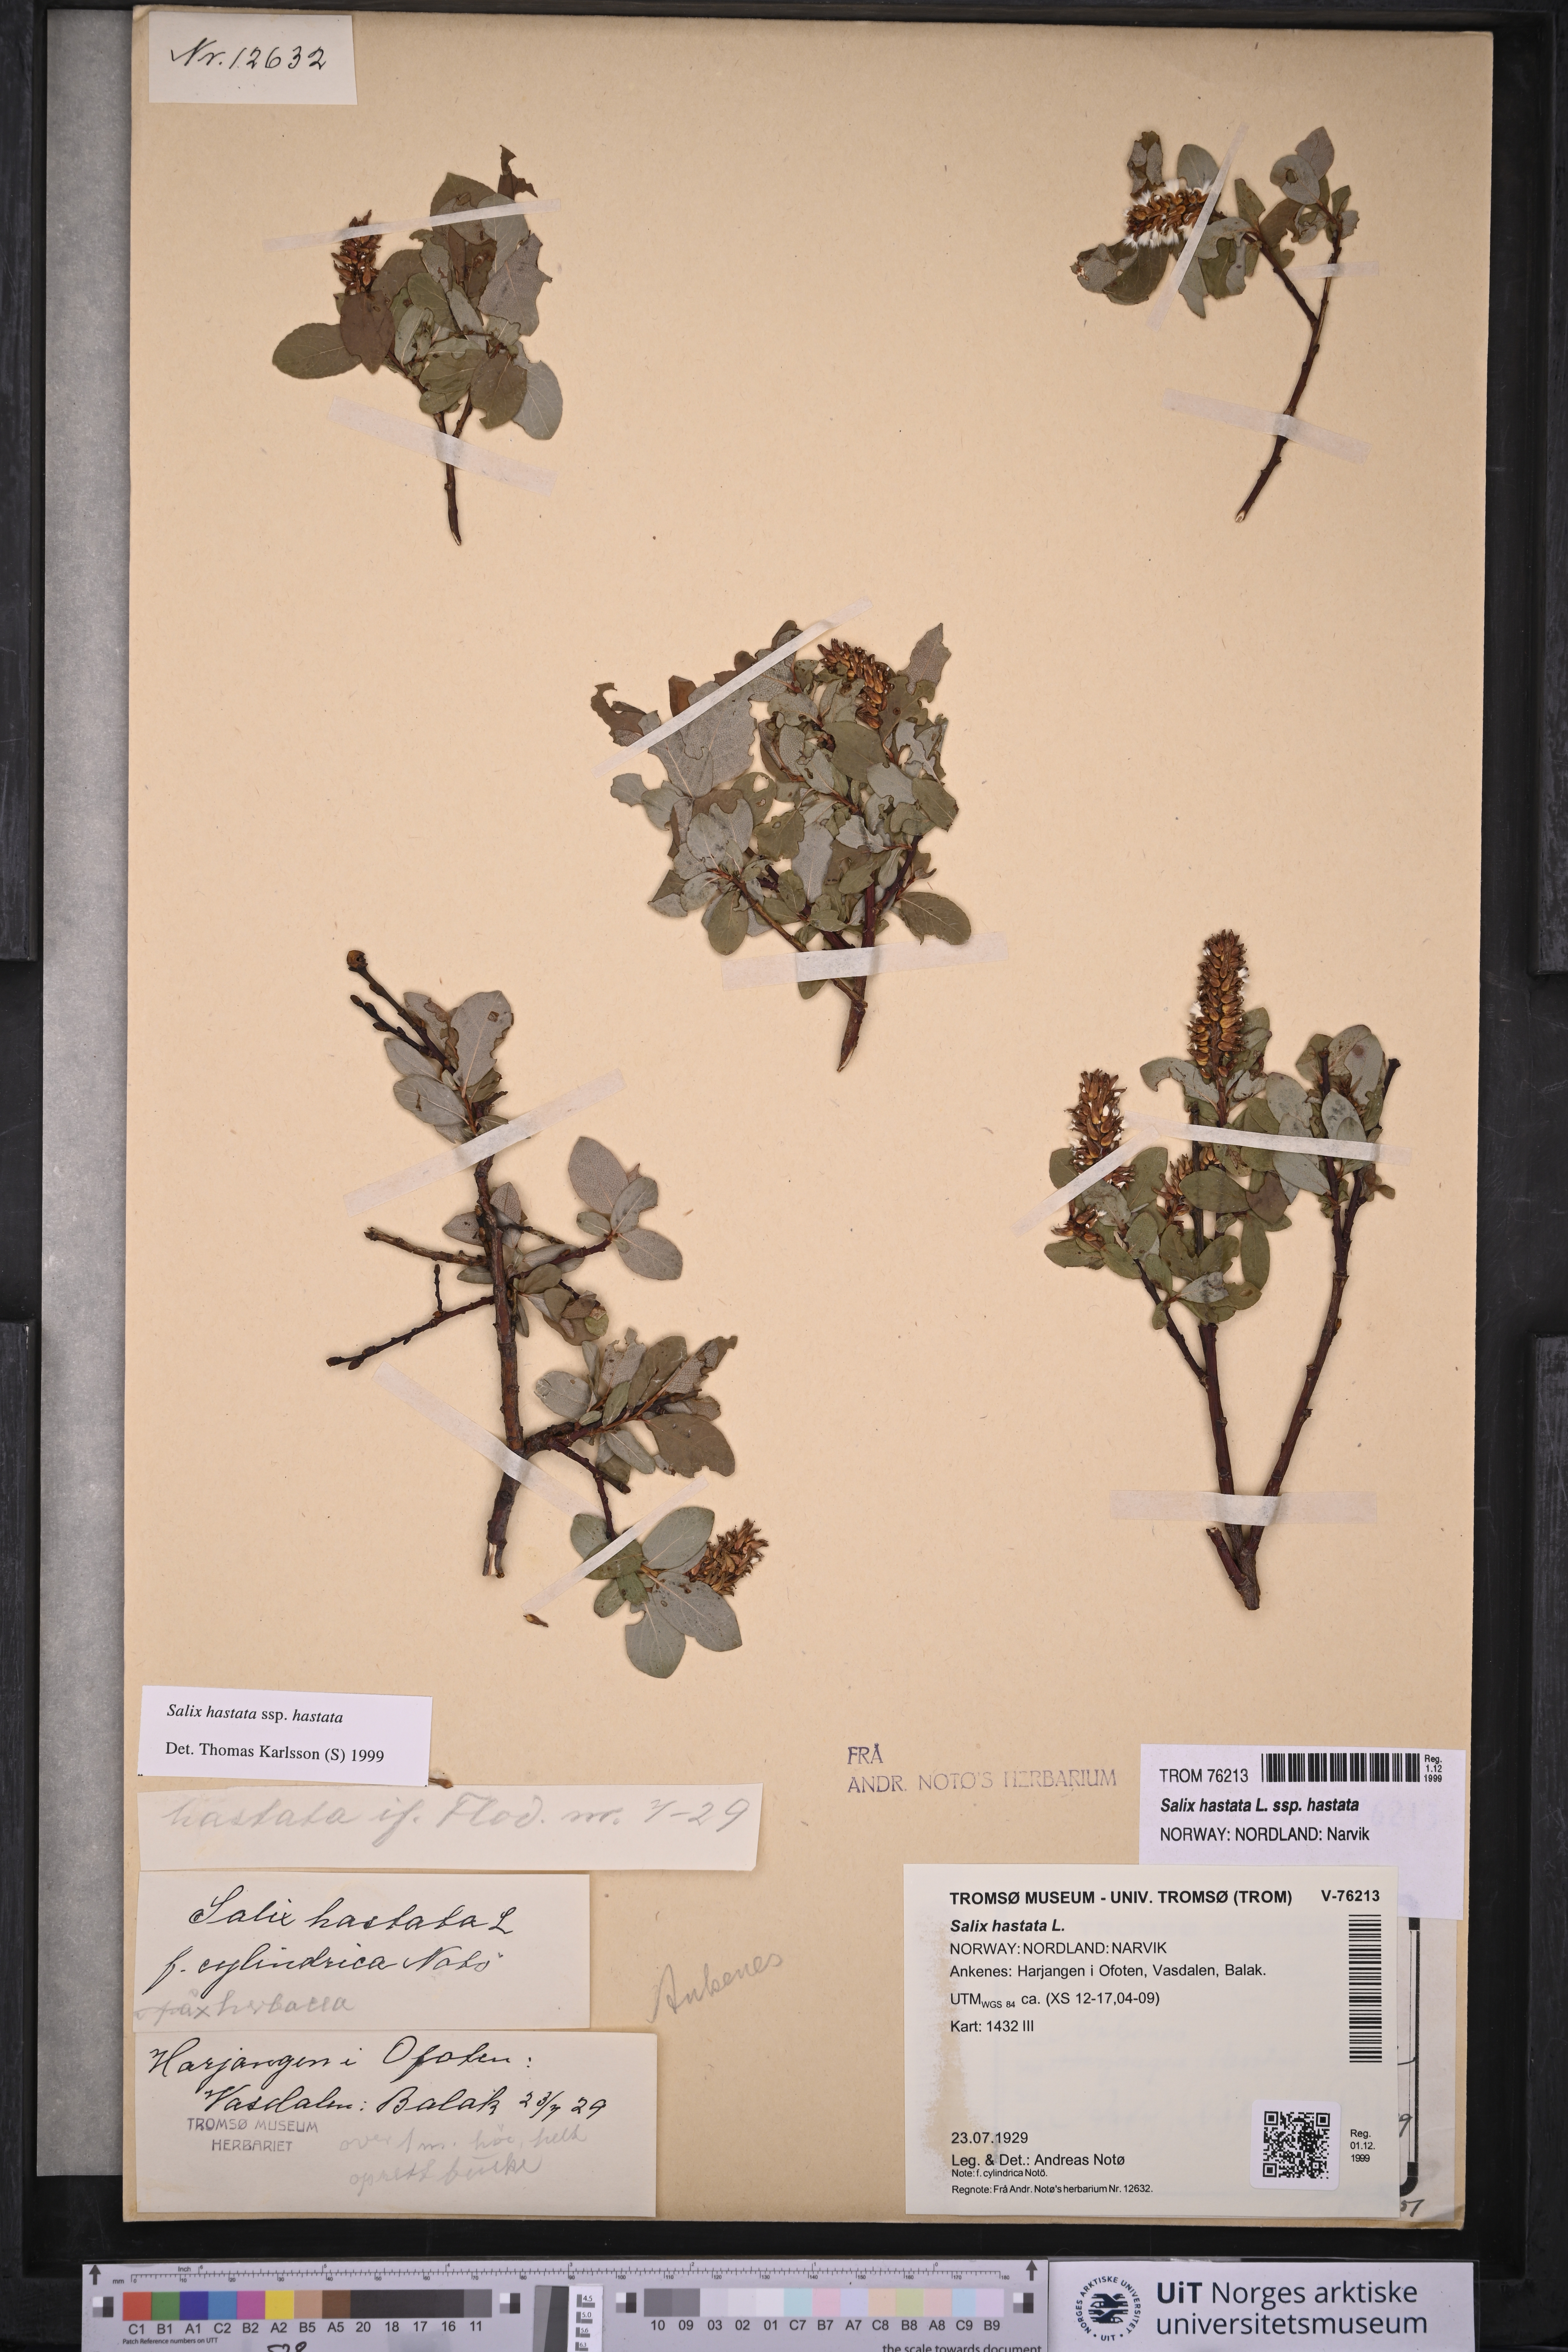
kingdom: Plantae
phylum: Tracheophyta
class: Magnoliopsida
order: Malpighiales
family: Salicaceae
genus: Salix
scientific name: Salix hastata
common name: Halberd willow
